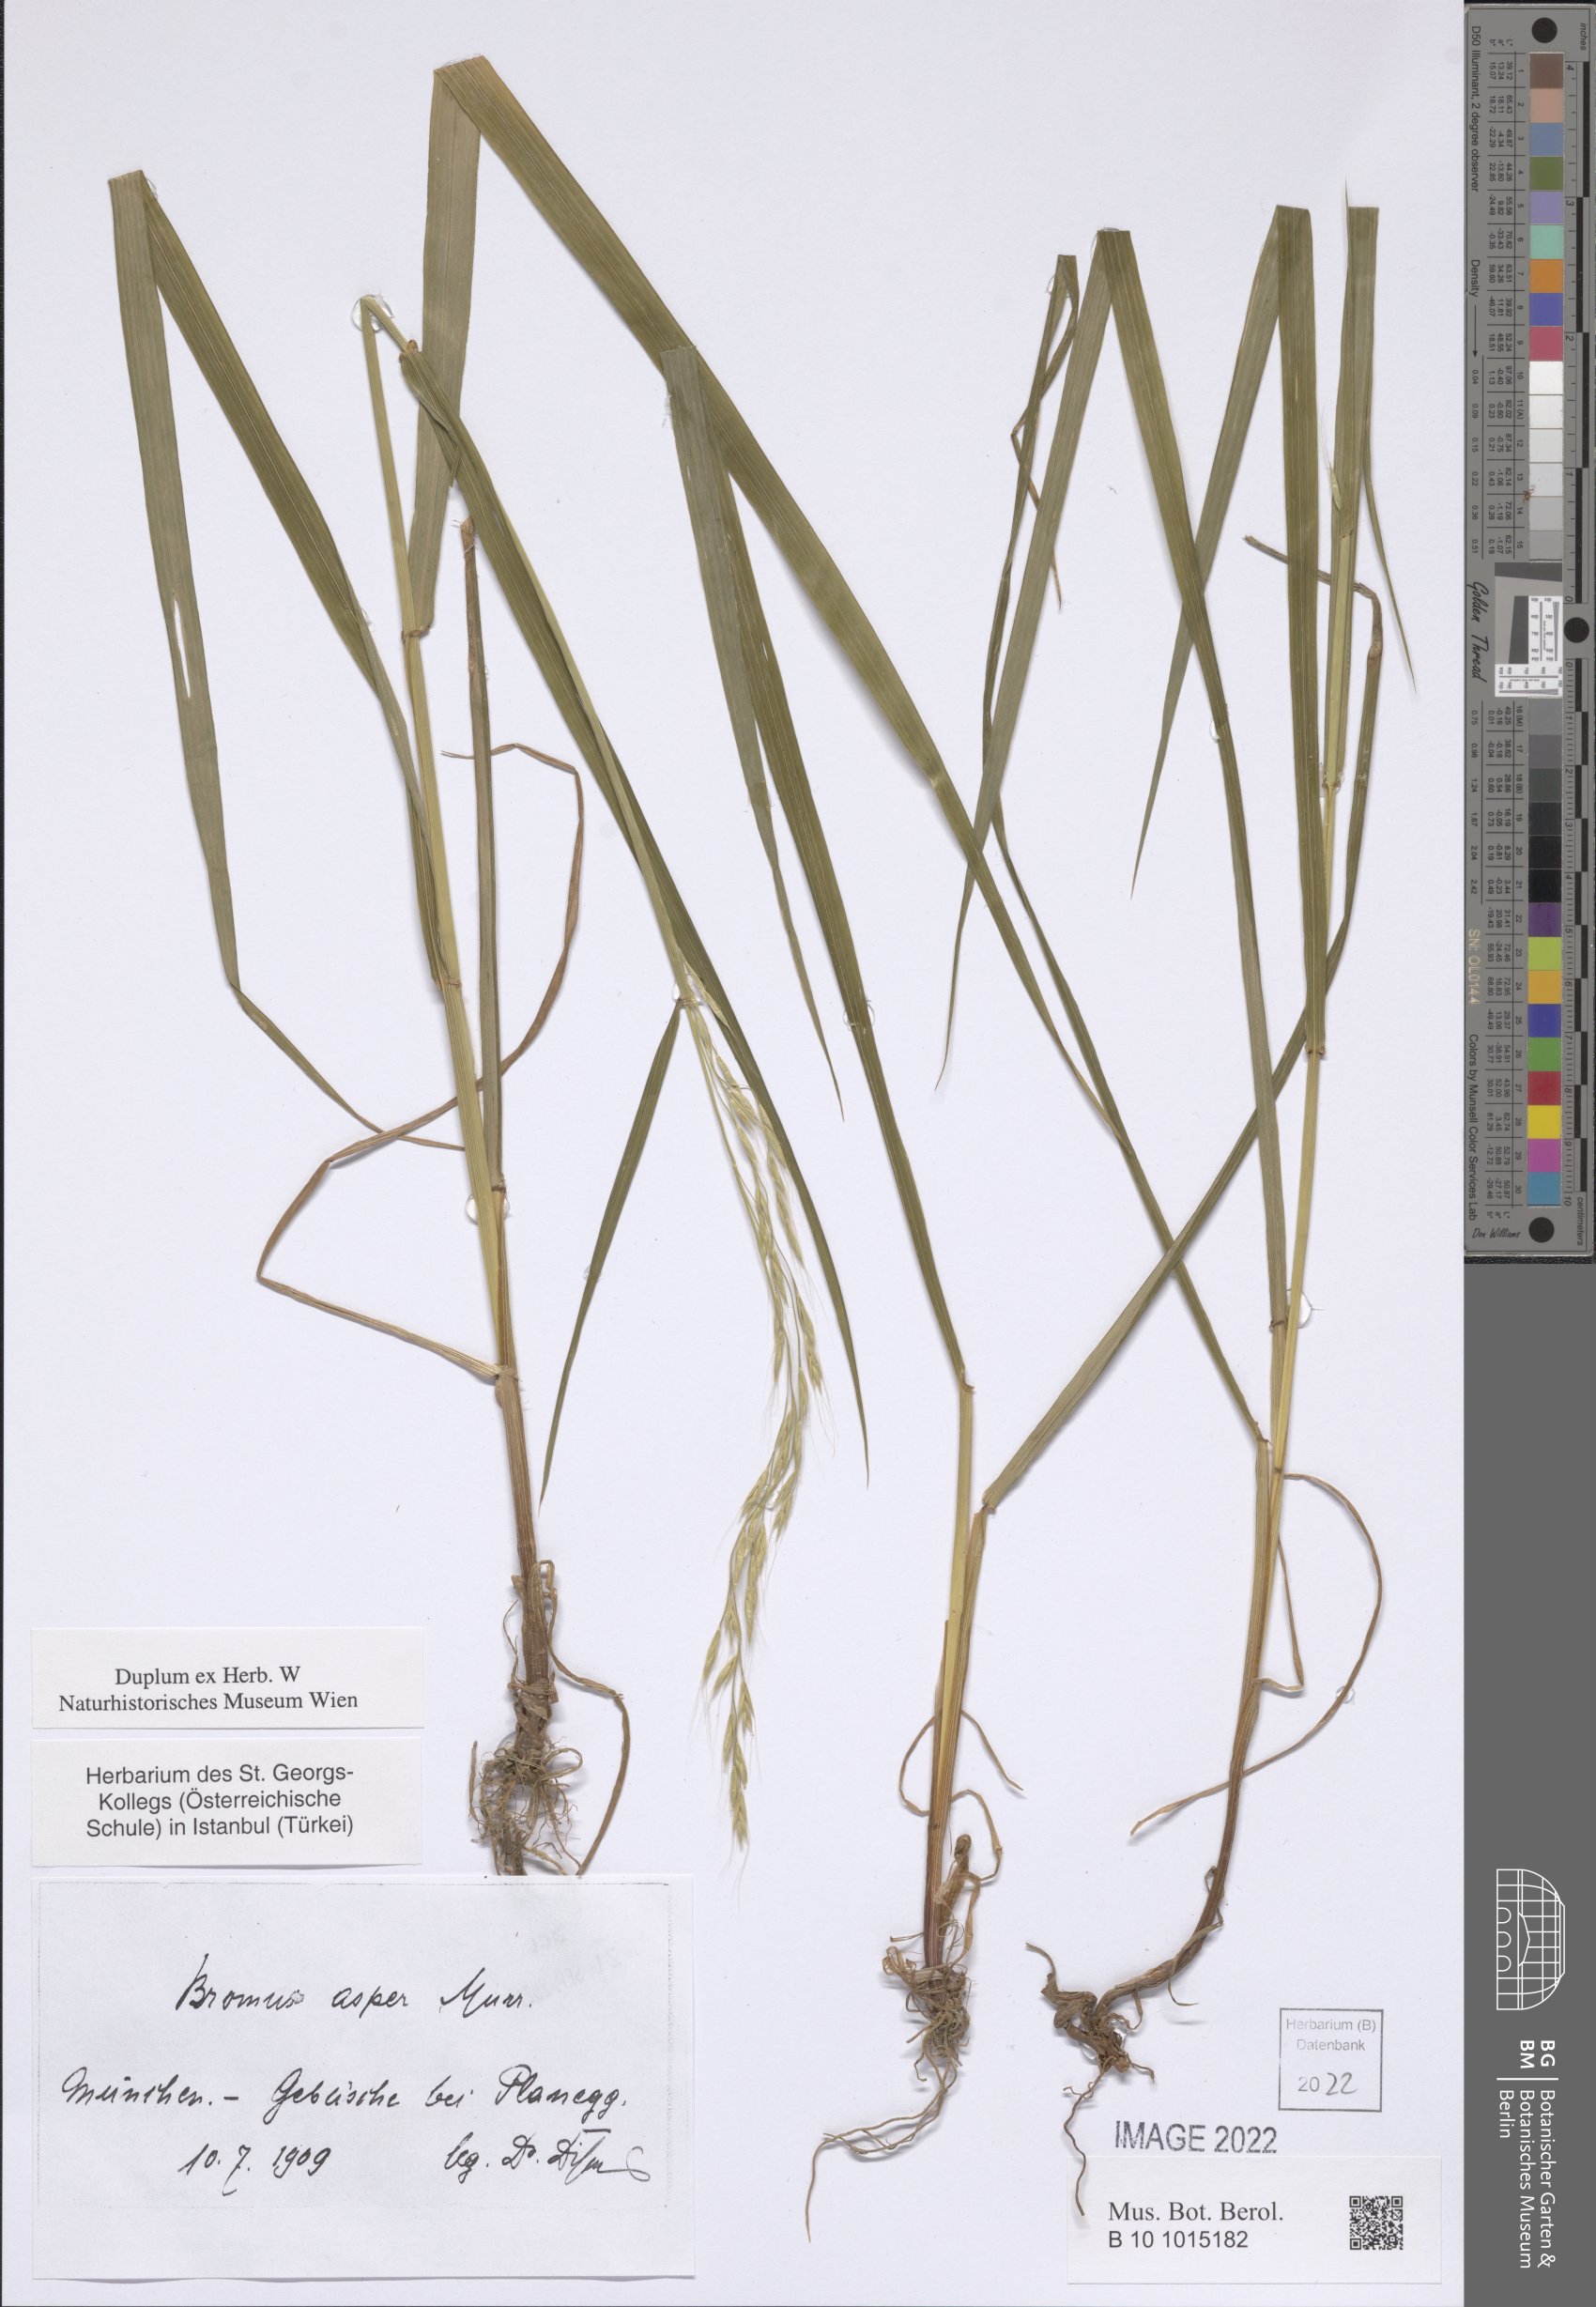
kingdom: Plantae
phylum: Tracheophyta
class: Liliopsida
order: Poales
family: Poaceae
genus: Bromus
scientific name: Bromus ramosus
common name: Hairy brome
